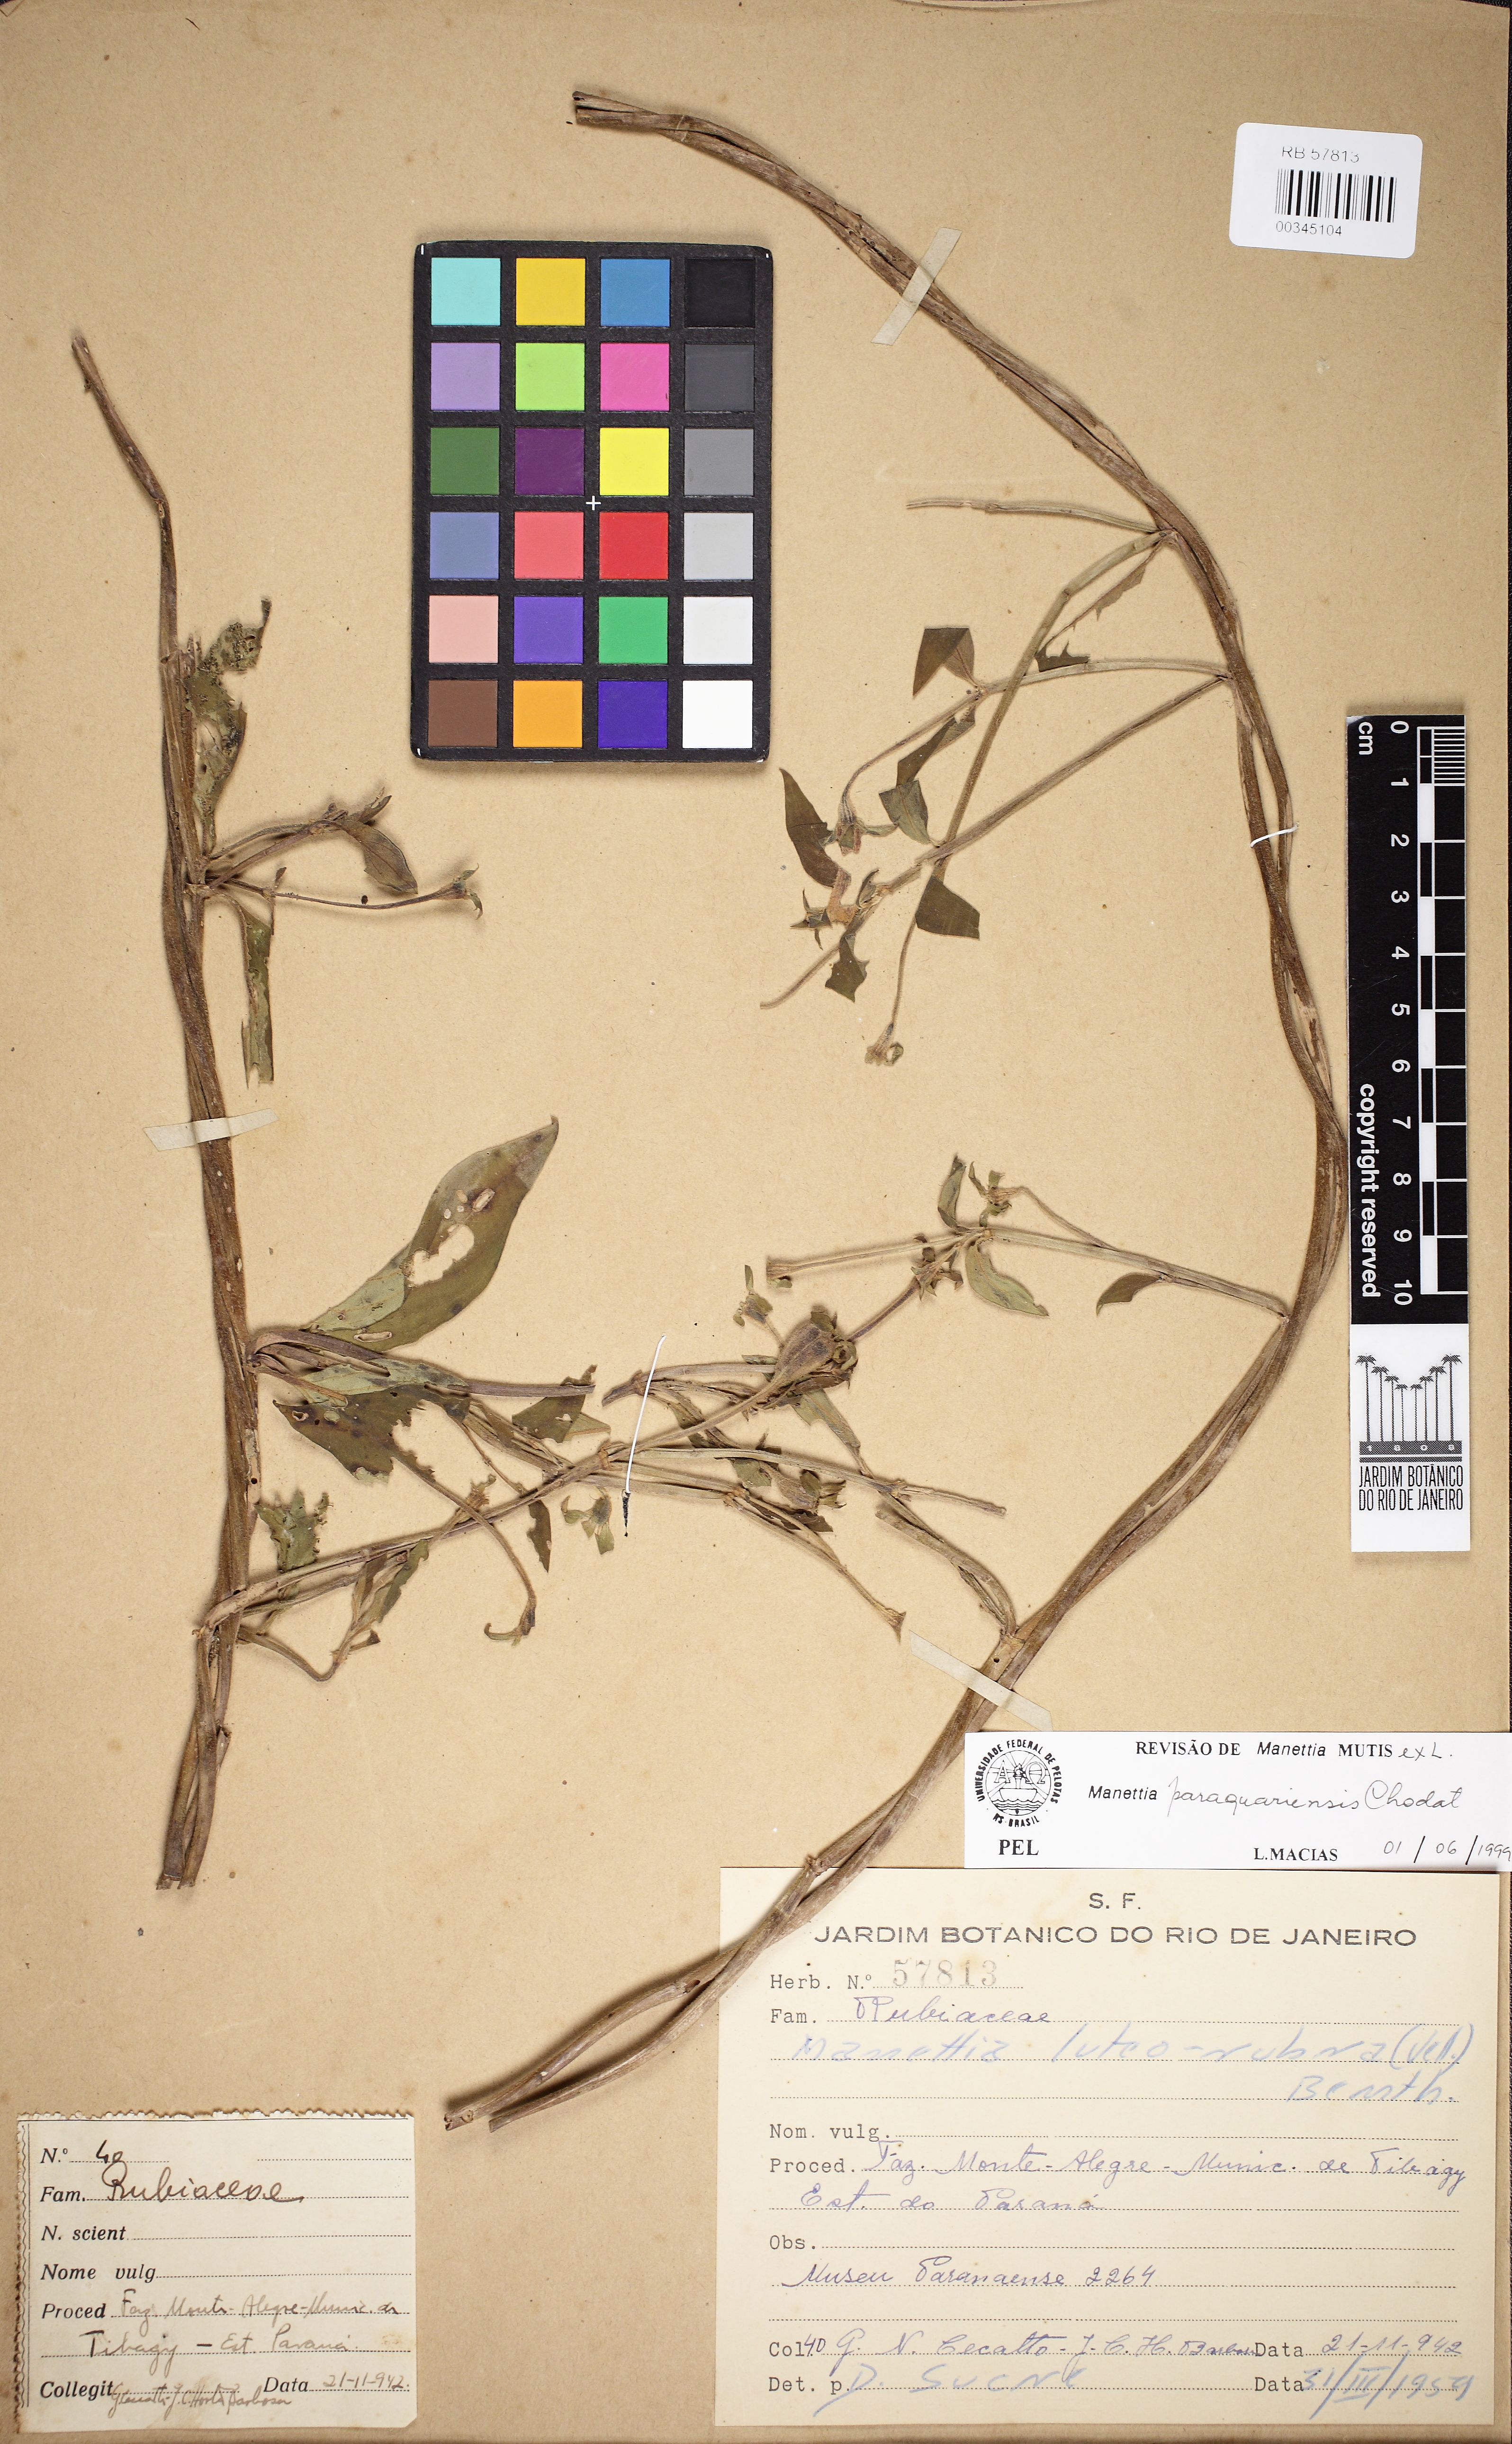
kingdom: Plantae
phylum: Tracheophyta
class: Magnoliopsida
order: Gentianales
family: Rubiaceae
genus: Manettia
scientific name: Manettia paraguariensis
